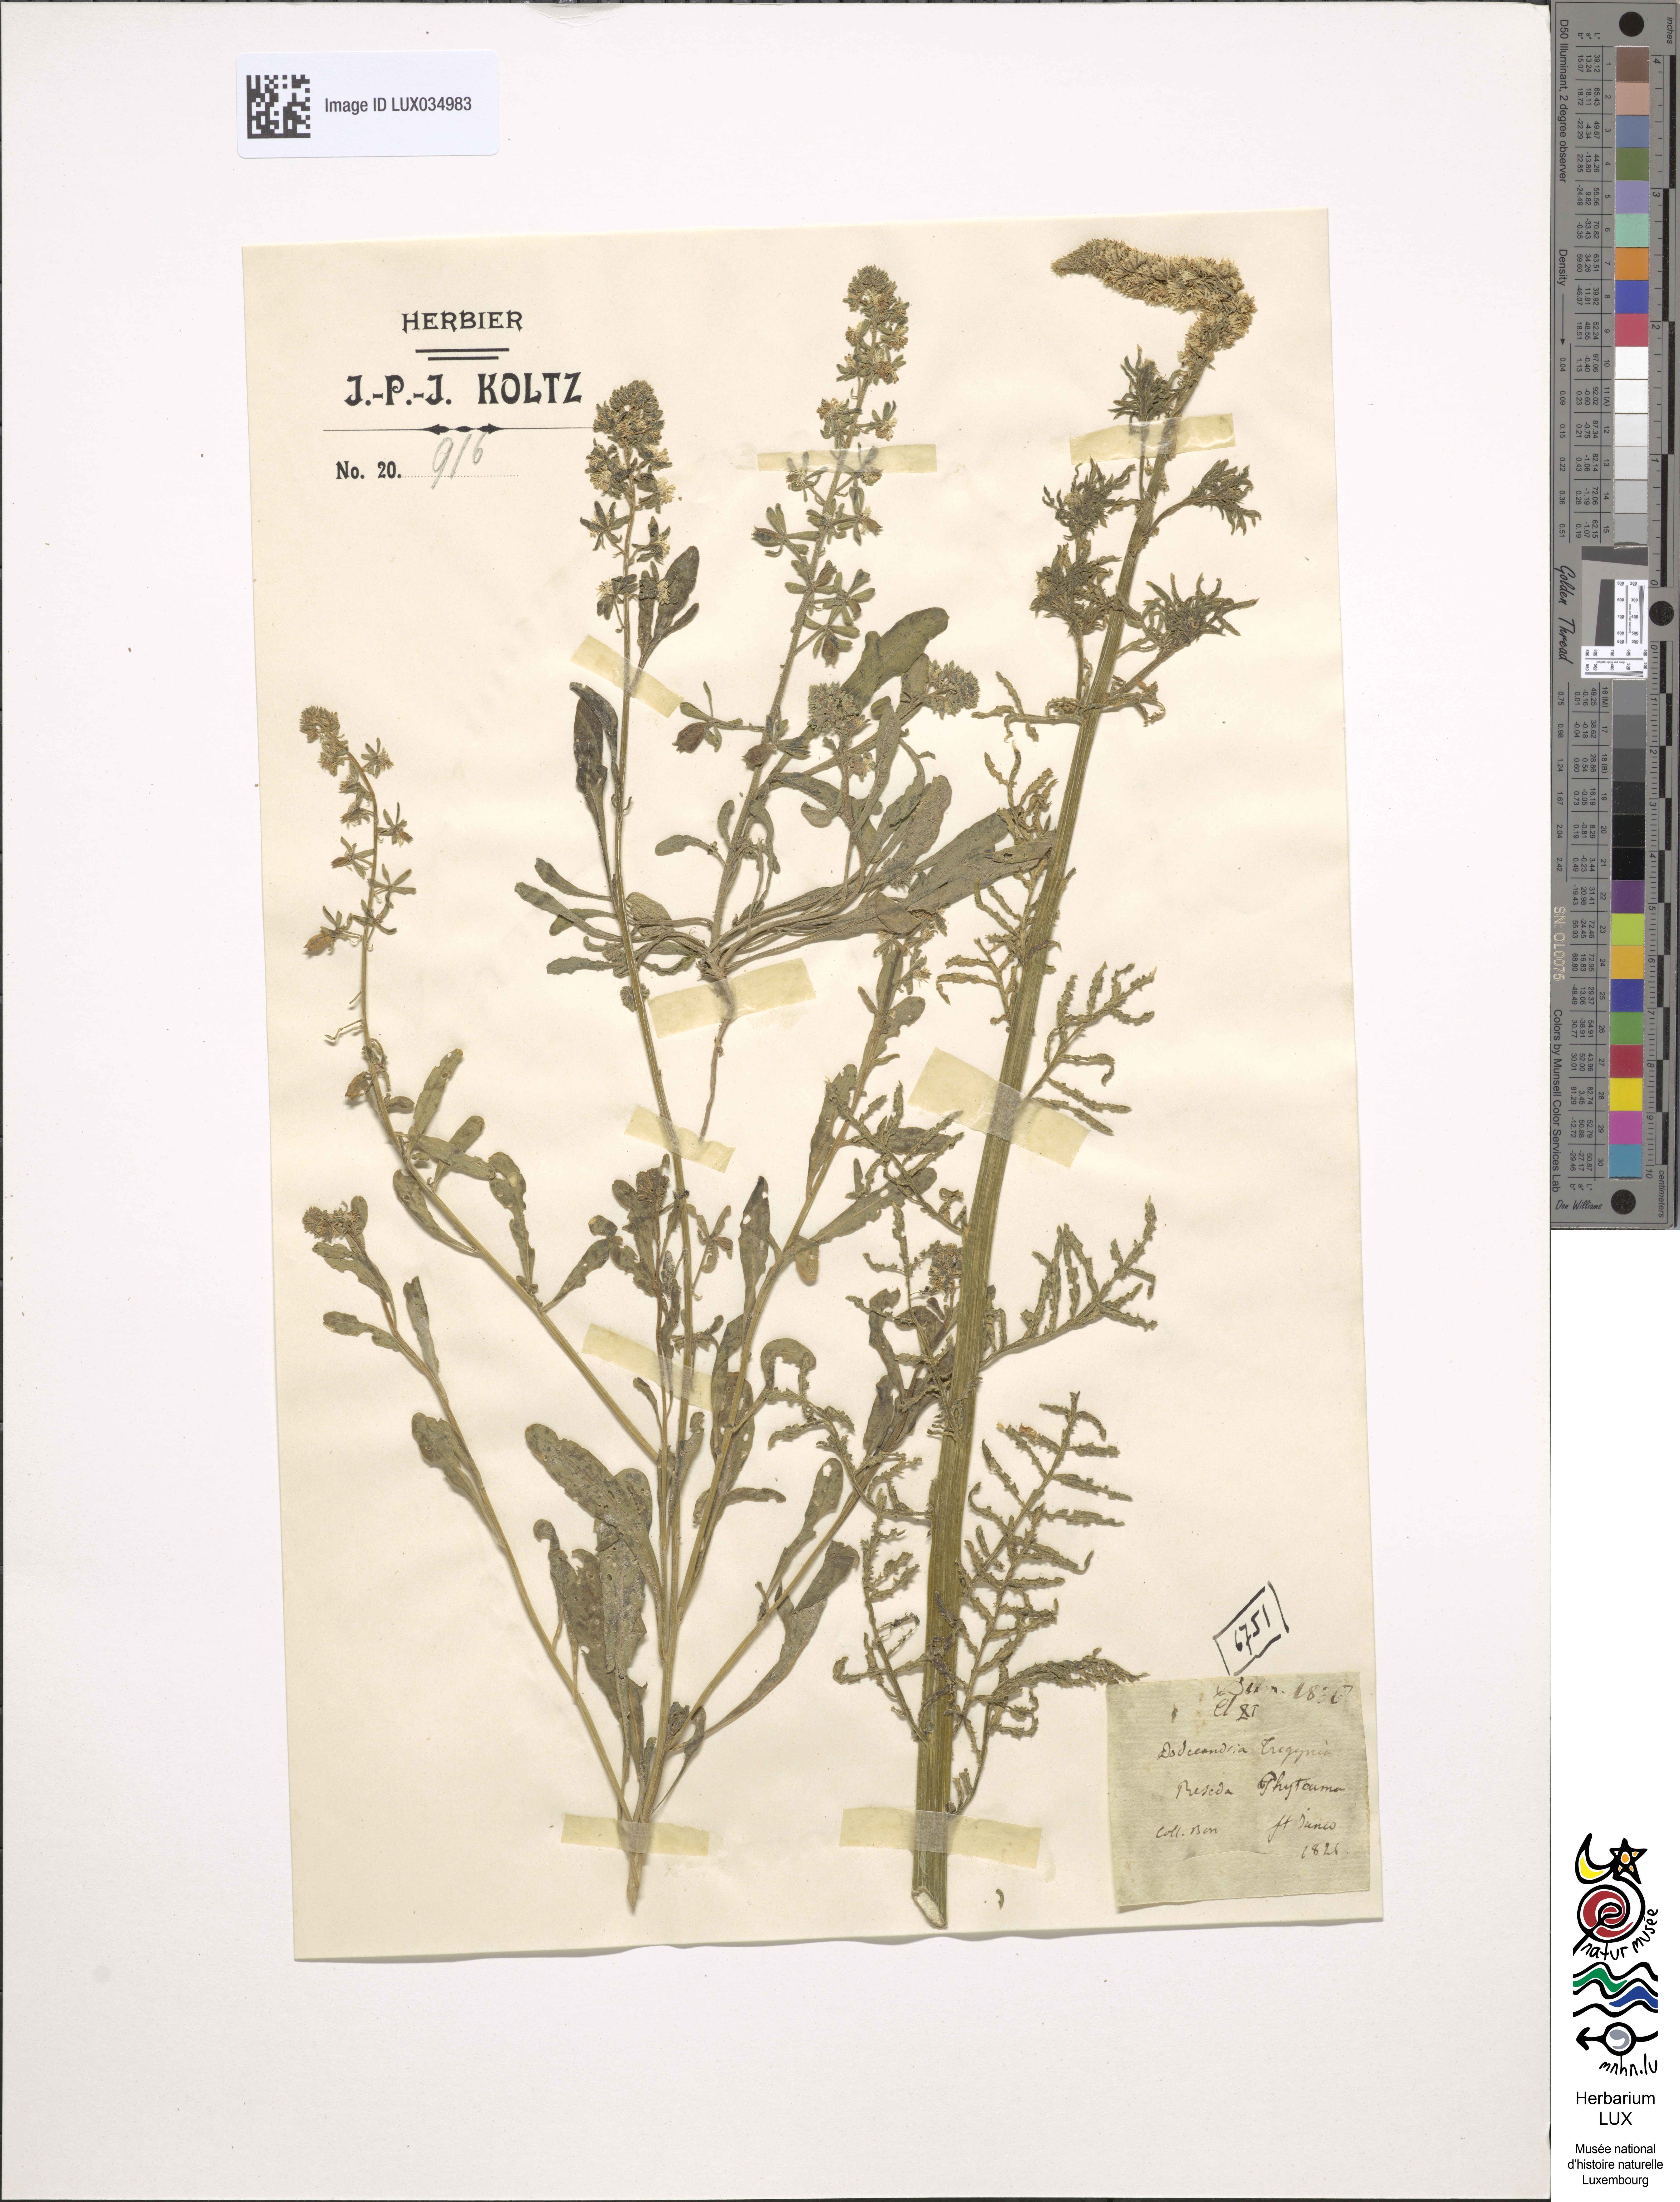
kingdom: Plantae
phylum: Tracheophyta
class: Magnoliopsida
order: Brassicales
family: Resedaceae
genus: Reseda
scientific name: Reseda phyteuma
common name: Corn mignonette
